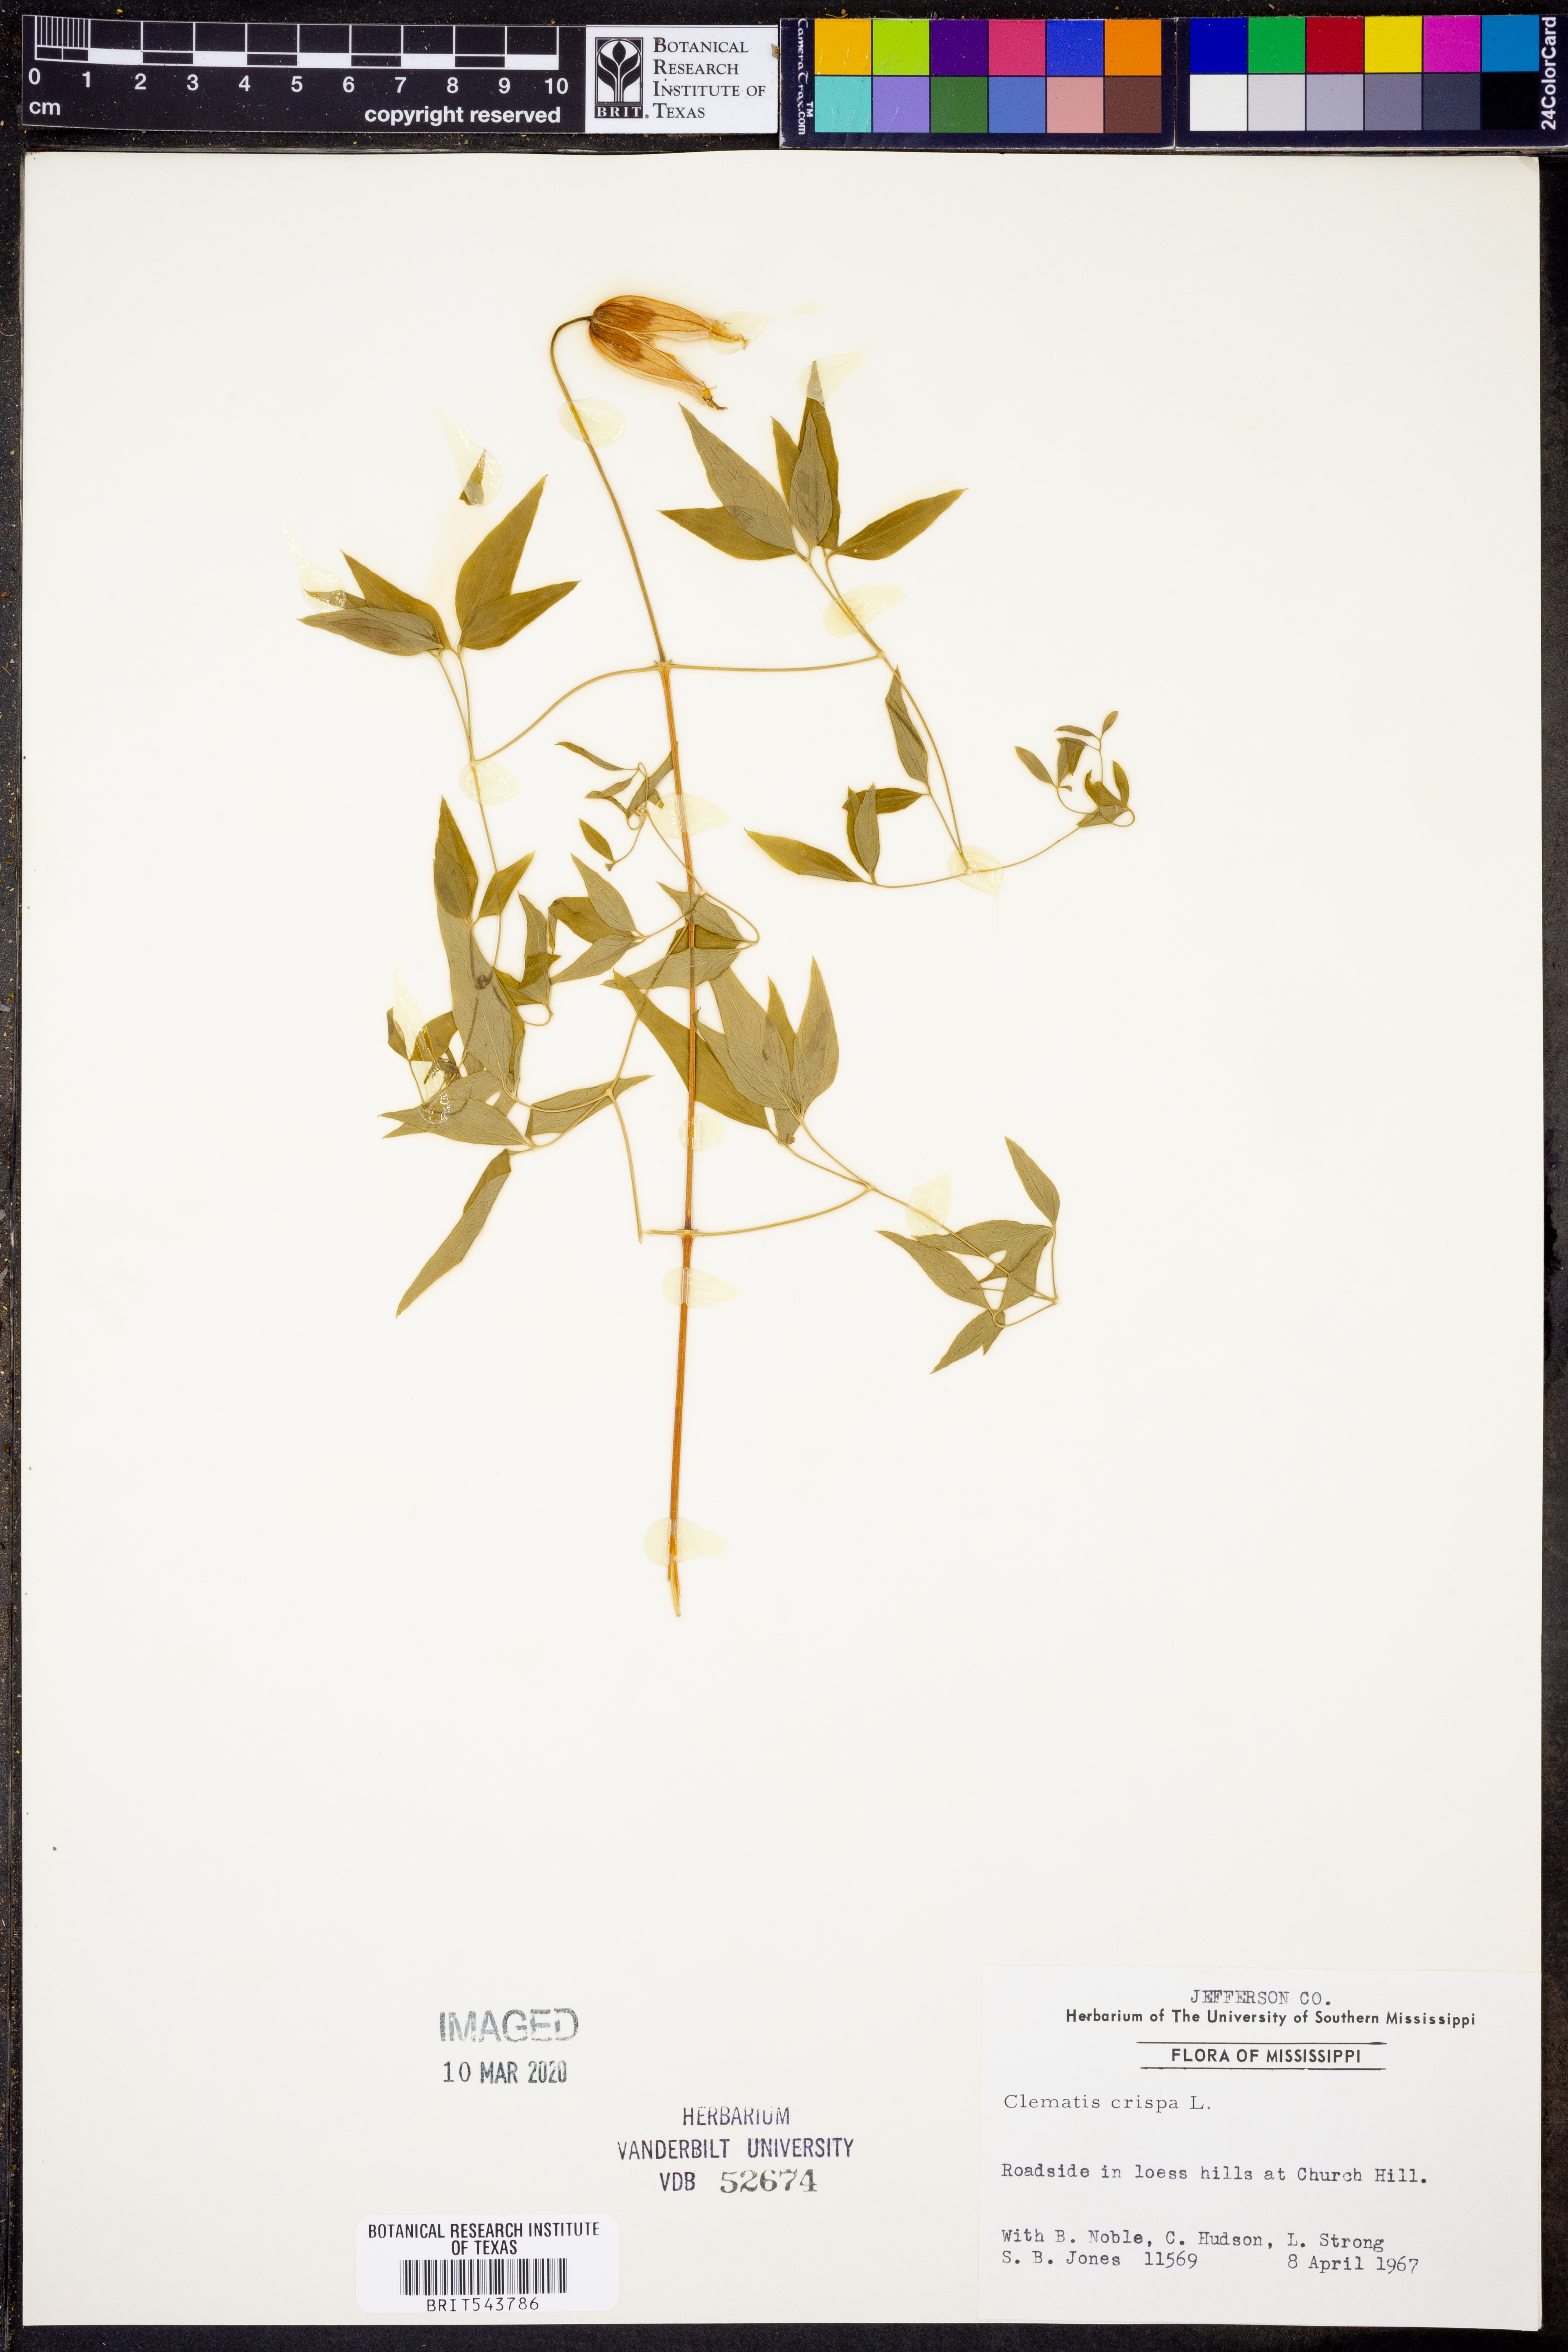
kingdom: Plantae
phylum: Tracheophyta
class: Magnoliopsida
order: Ranunculales
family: Ranunculaceae
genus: Clematis
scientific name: Clematis crispa
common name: Curly clematis
